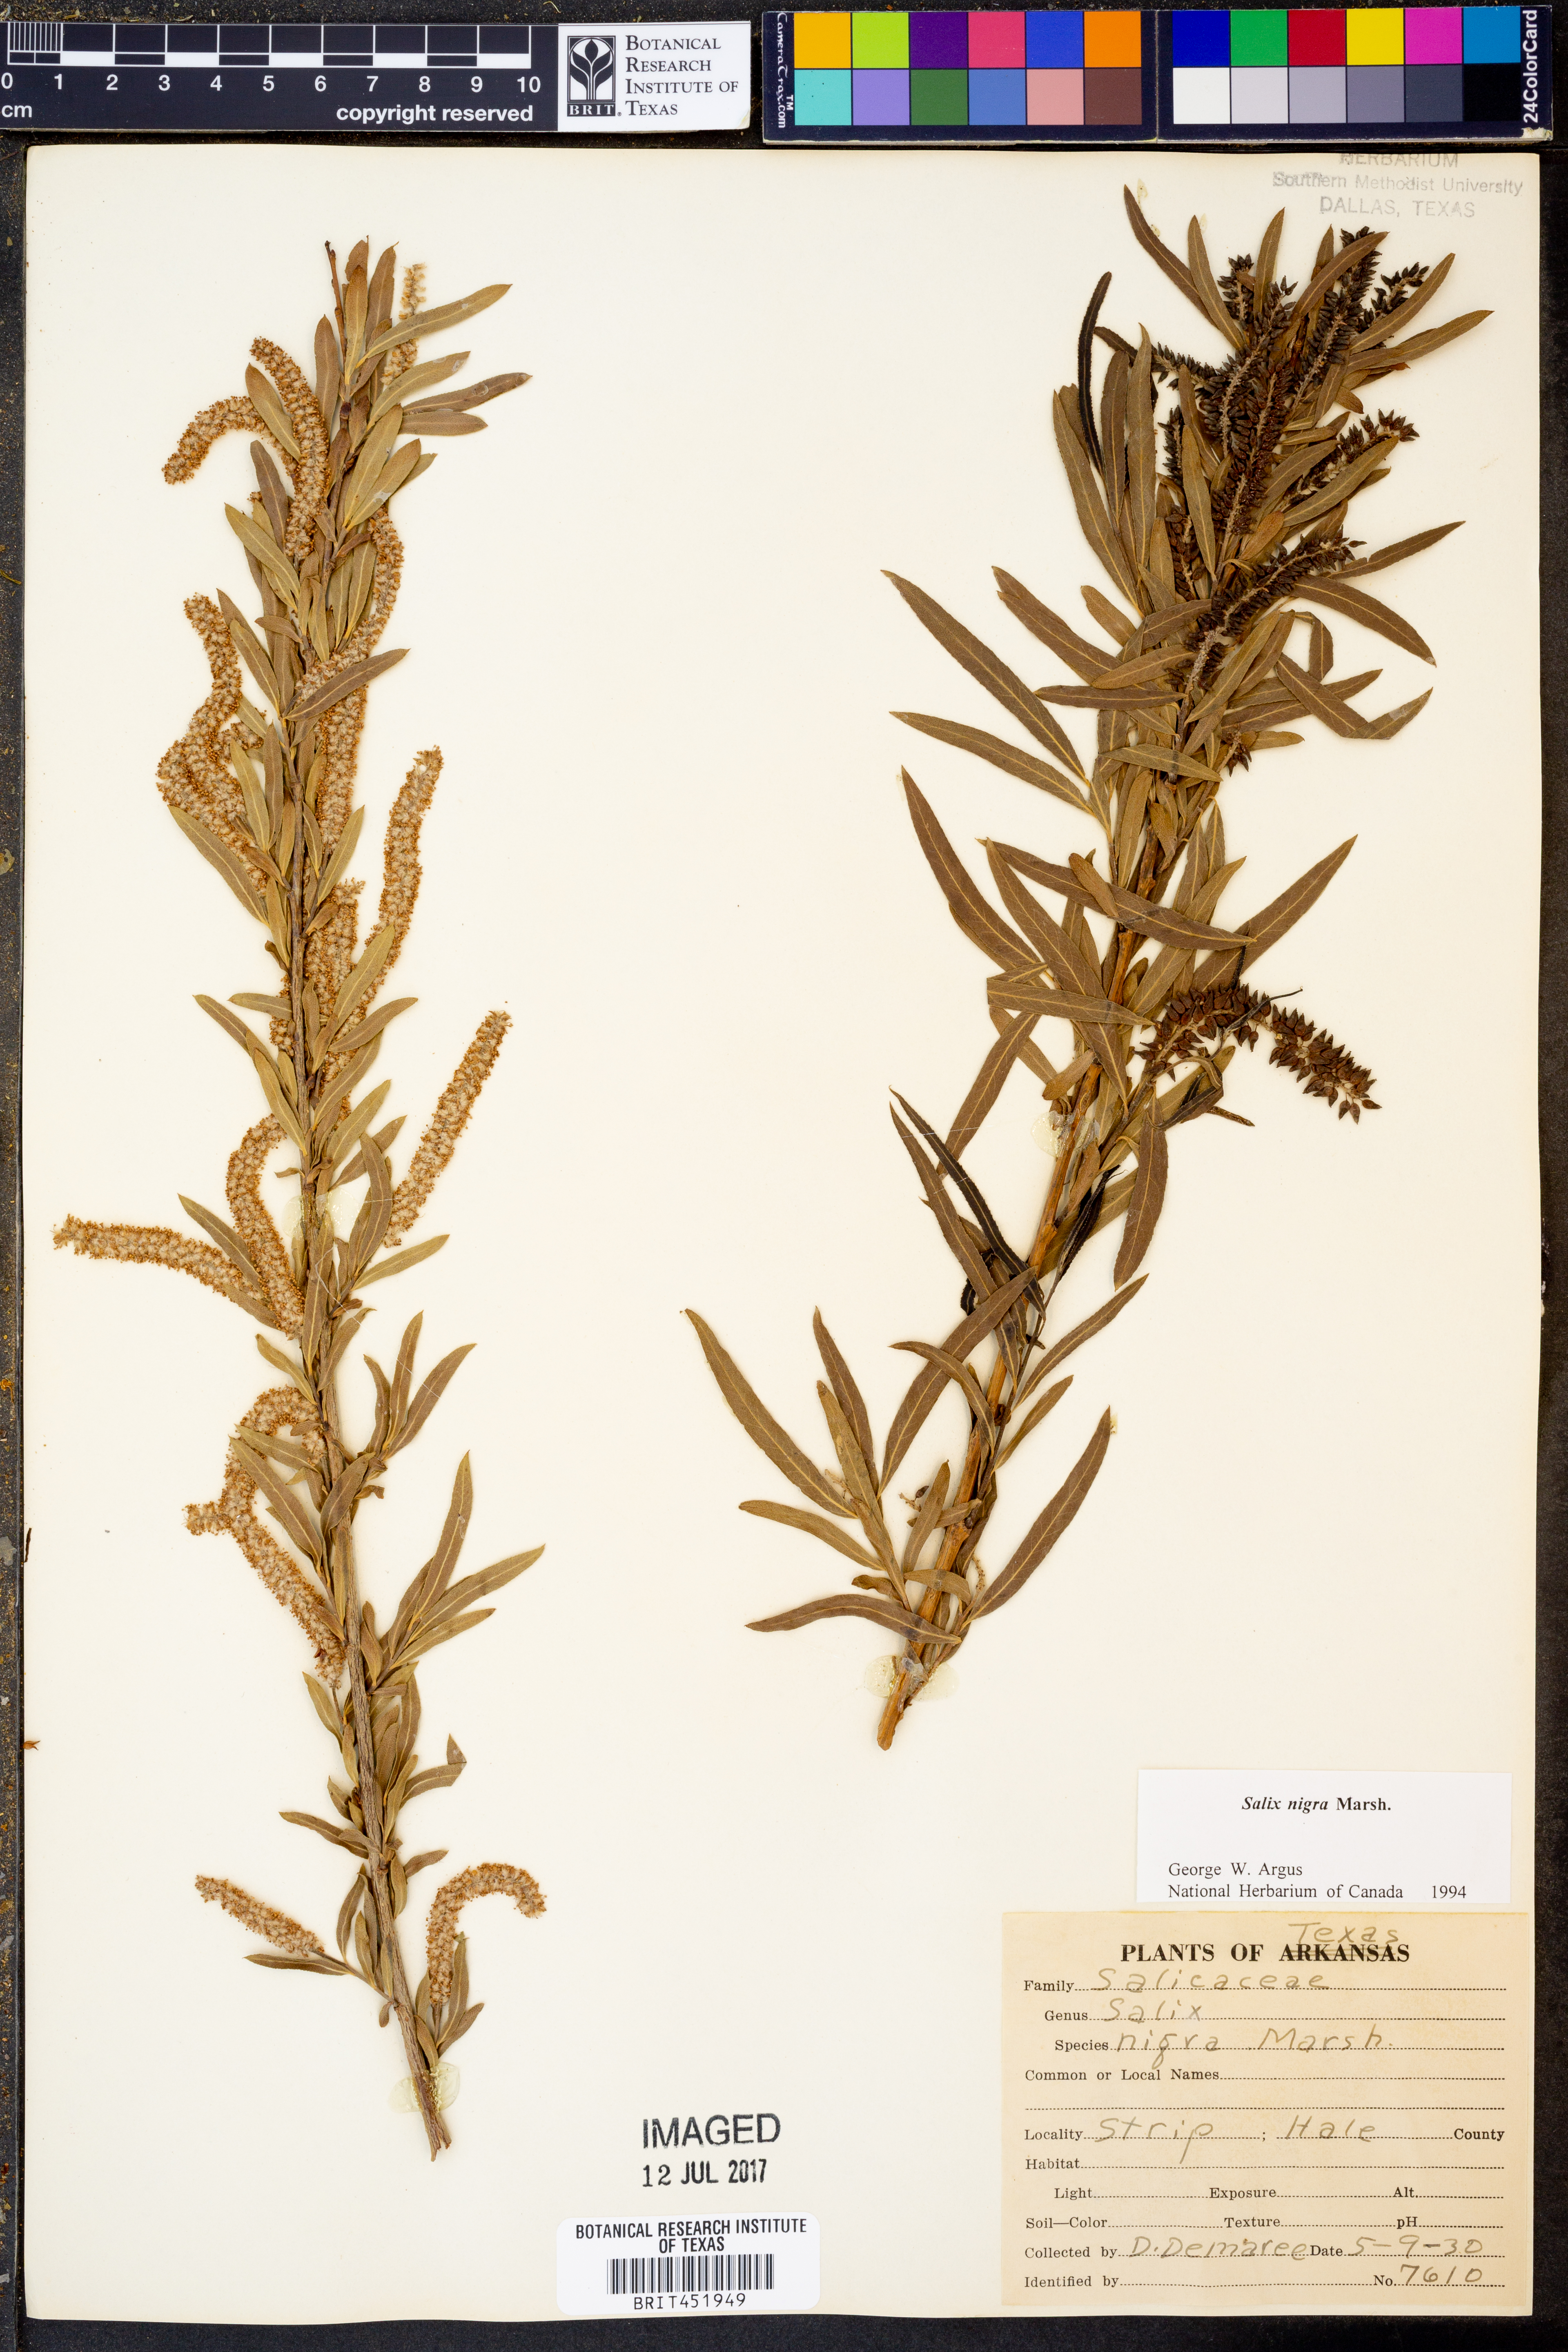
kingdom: Plantae
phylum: Tracheophyta
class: Magnoliopsida
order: Malpighiales
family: Salicaceae
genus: Salix
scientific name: Salix nigra
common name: Black willow
